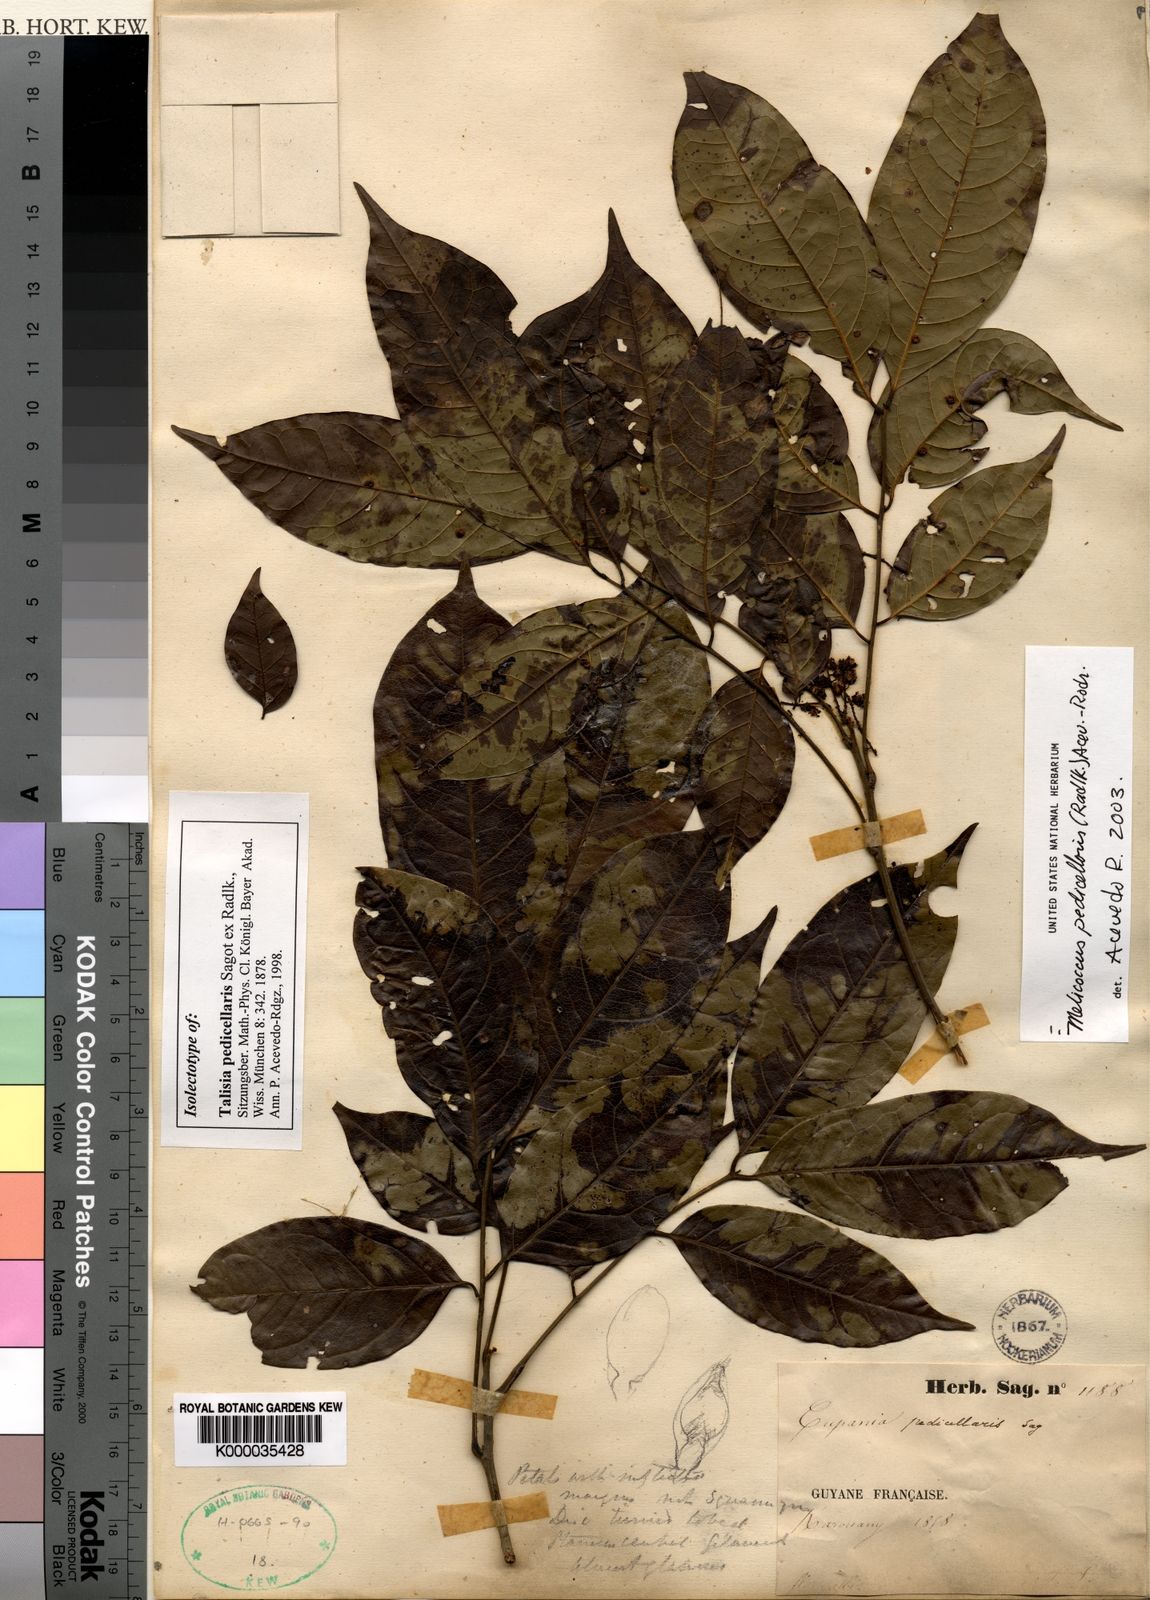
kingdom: Plantae
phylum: Tracheophyta
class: Magnoliopsida
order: Sapindales
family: Sapindaceae
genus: Melicoccus
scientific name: Melicoccus
